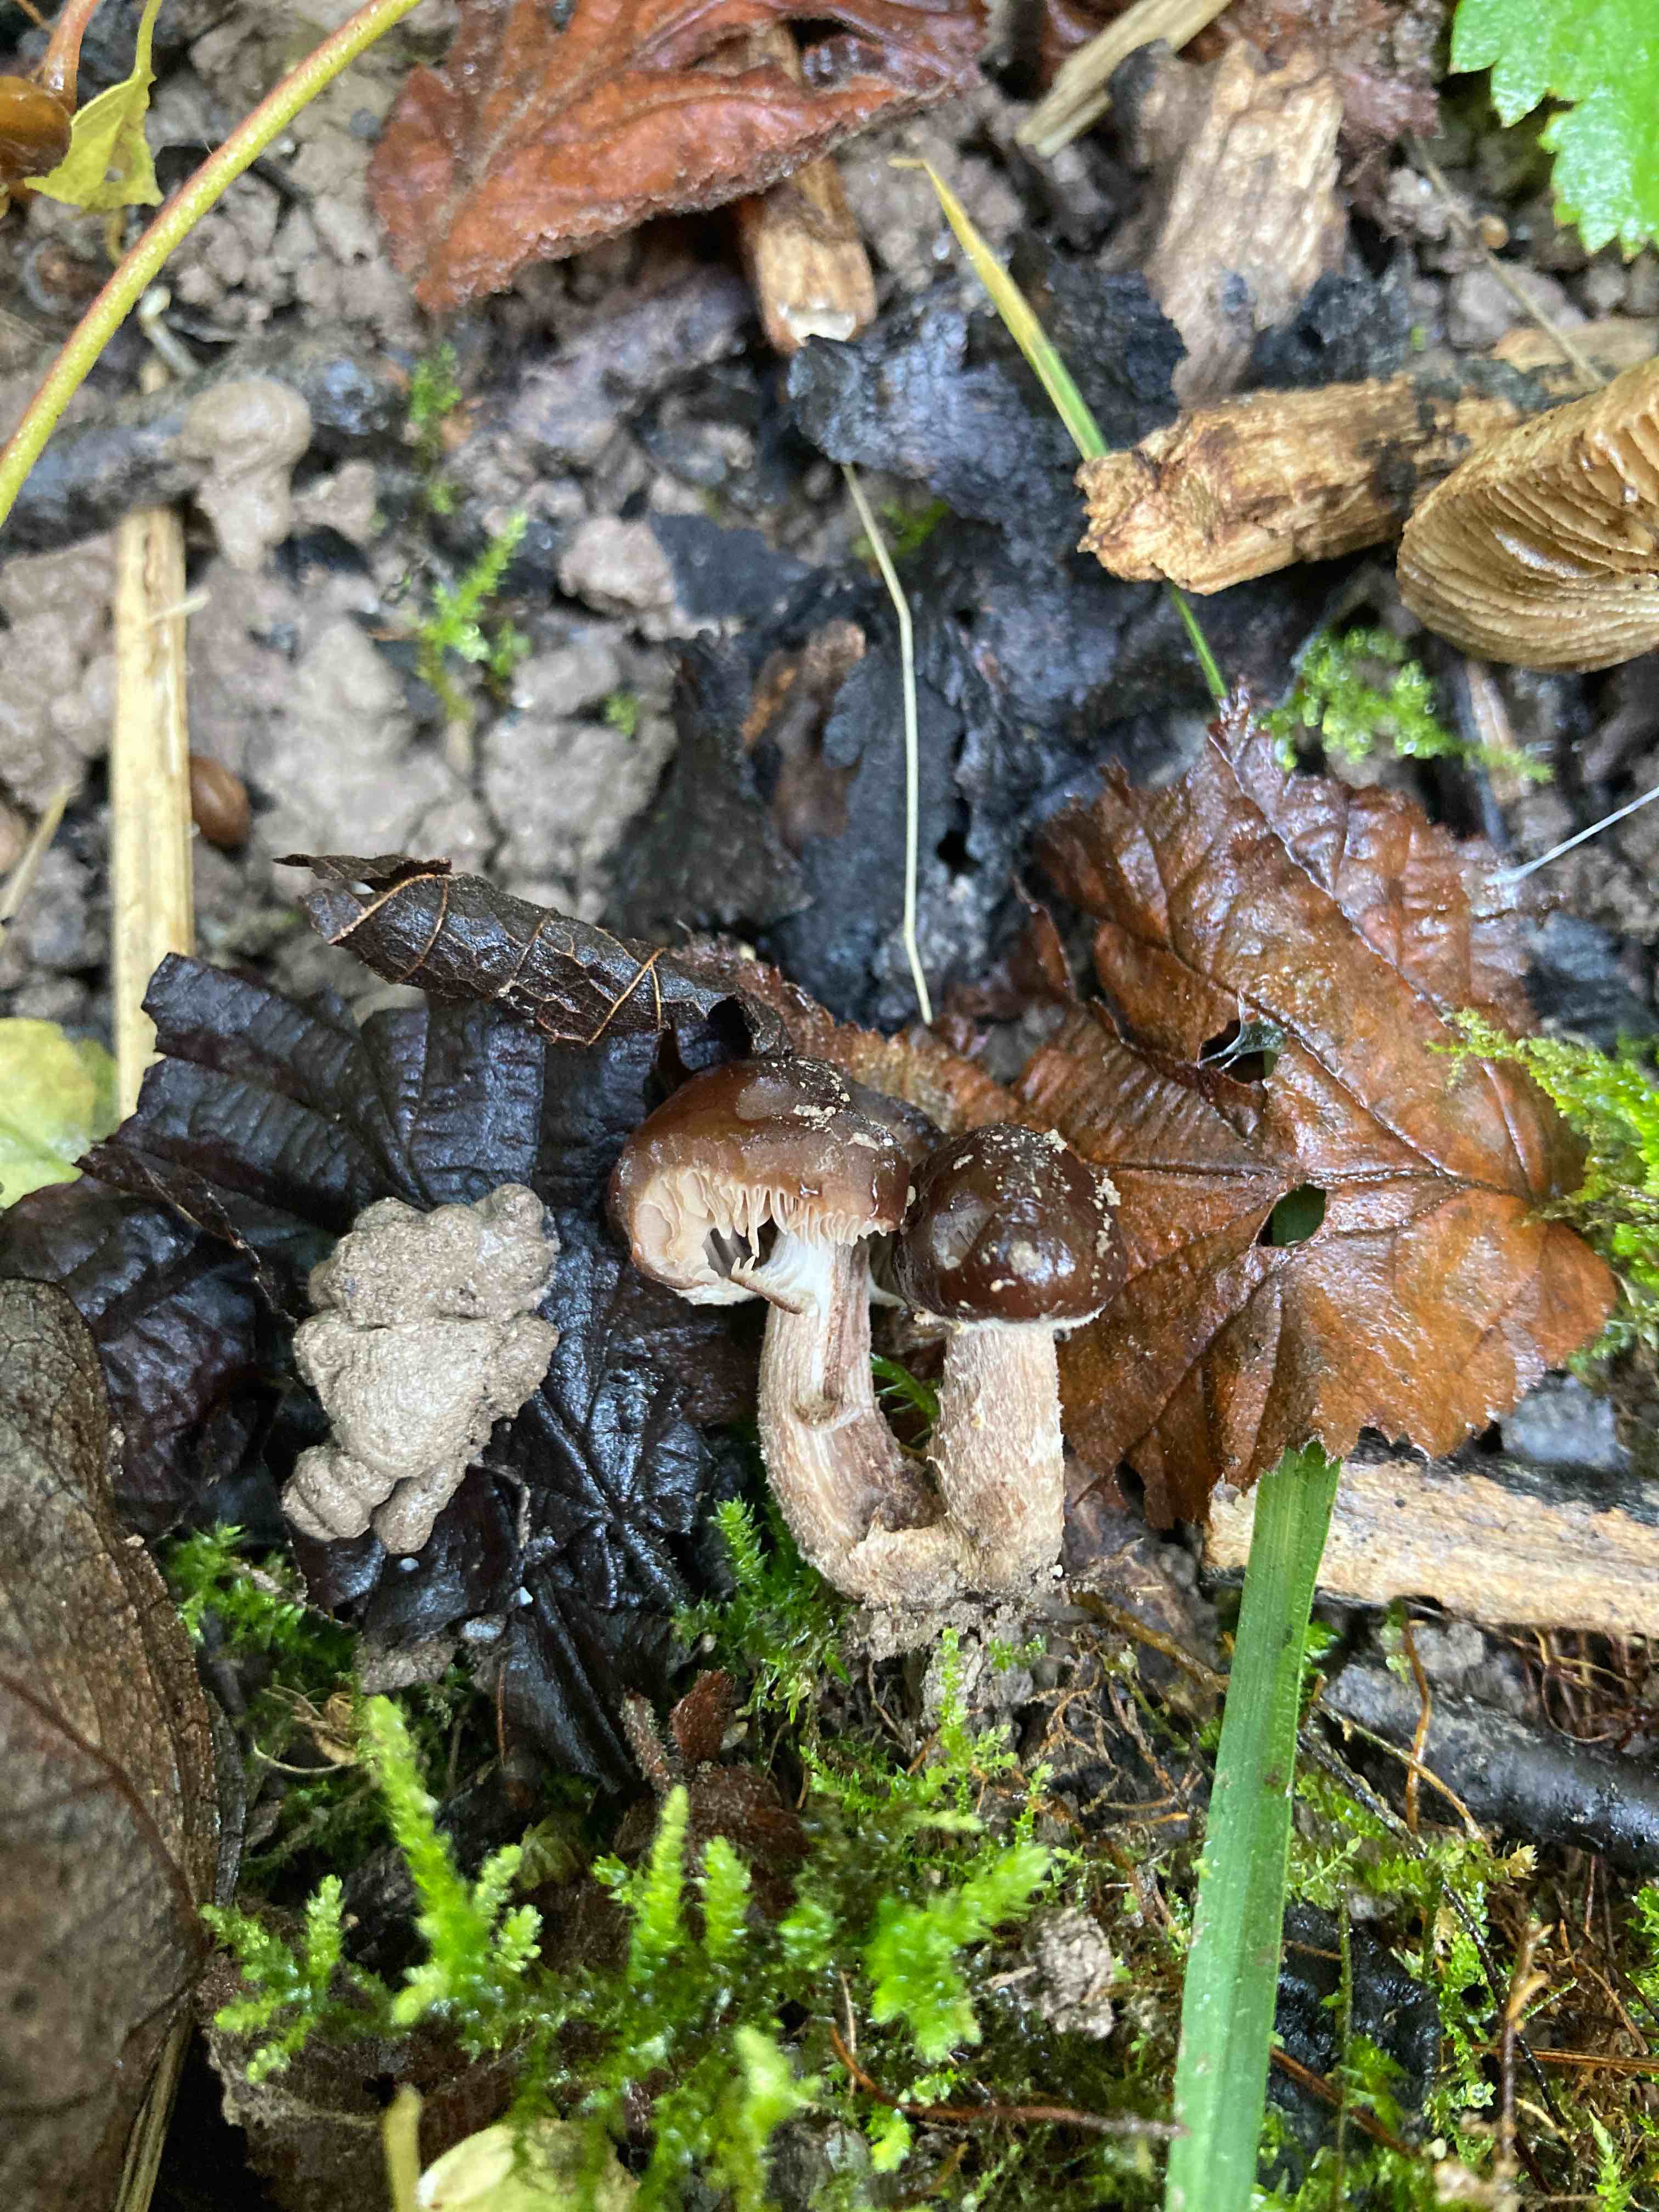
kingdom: Fungi
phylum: Basidiomycota
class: Agaricomycetes
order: Agaricales
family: Tubariaceae
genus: Cyclocybe
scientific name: Cyclocybe erebia
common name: mørk agerhat
